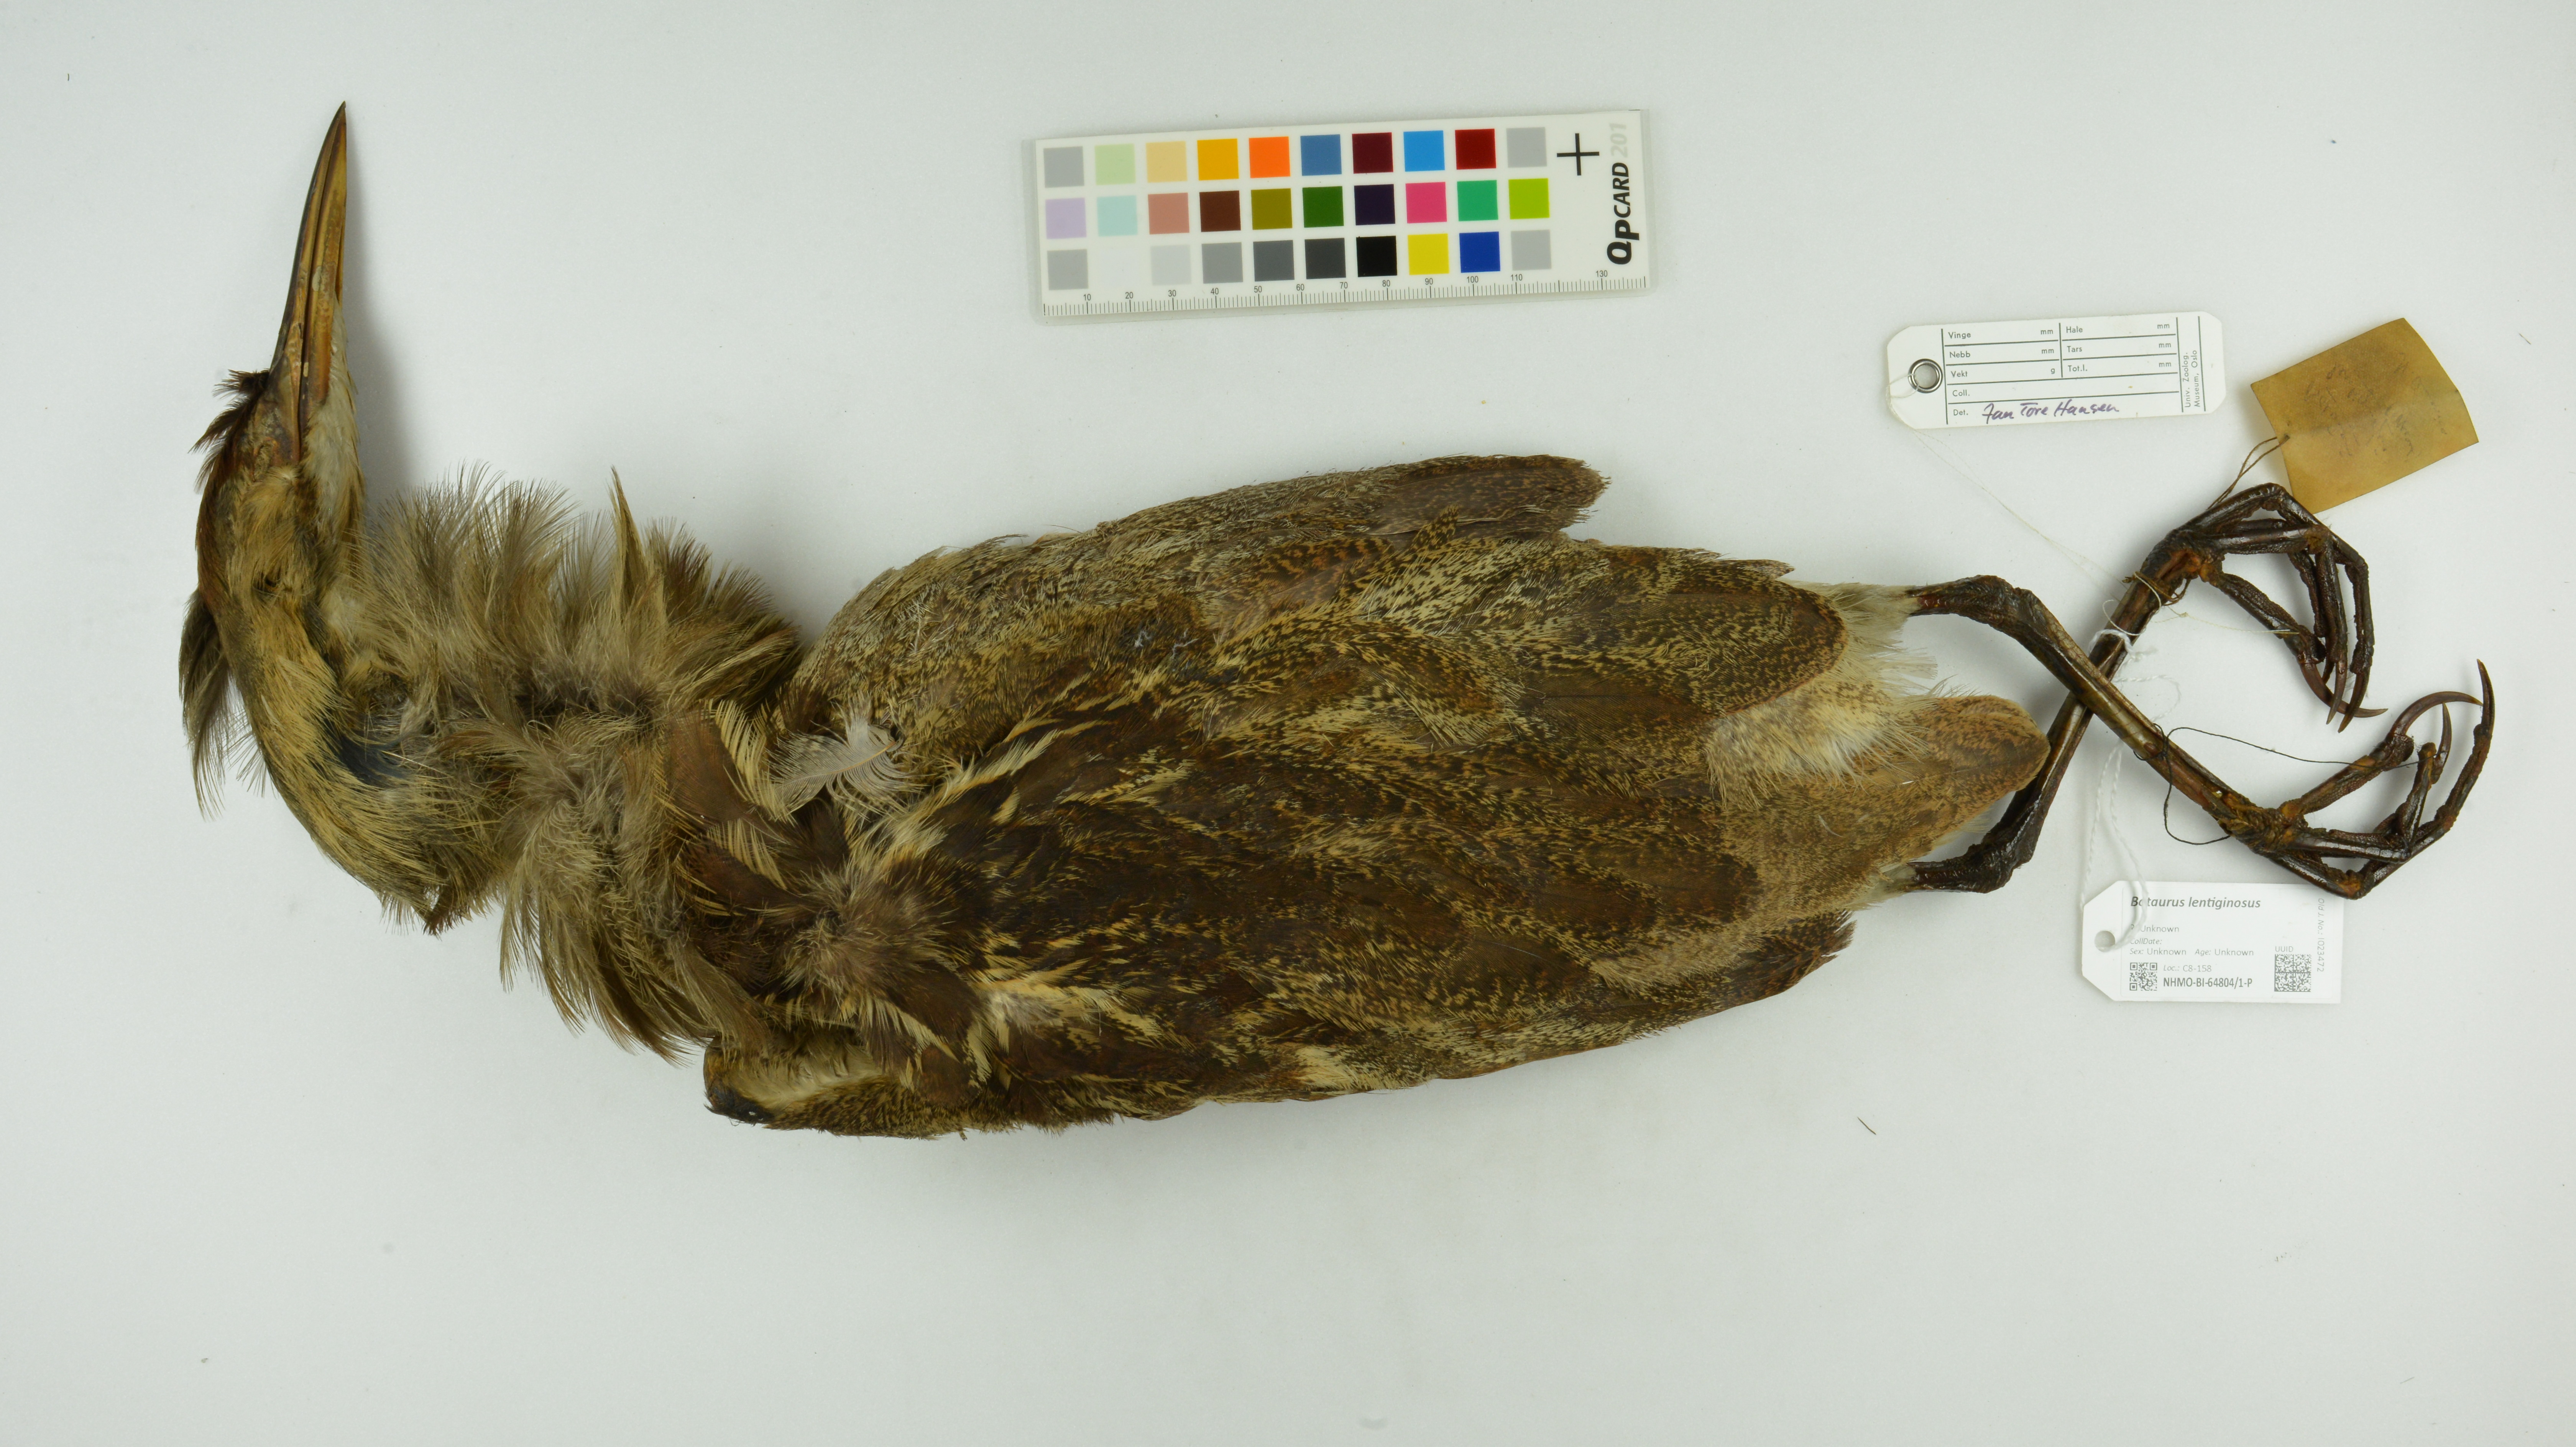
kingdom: Animalia
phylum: Chordata
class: Aves
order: Pelecaniformes
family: Ardeidae
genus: Botaurus
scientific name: Botaurus lentiginosus
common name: American bittern
